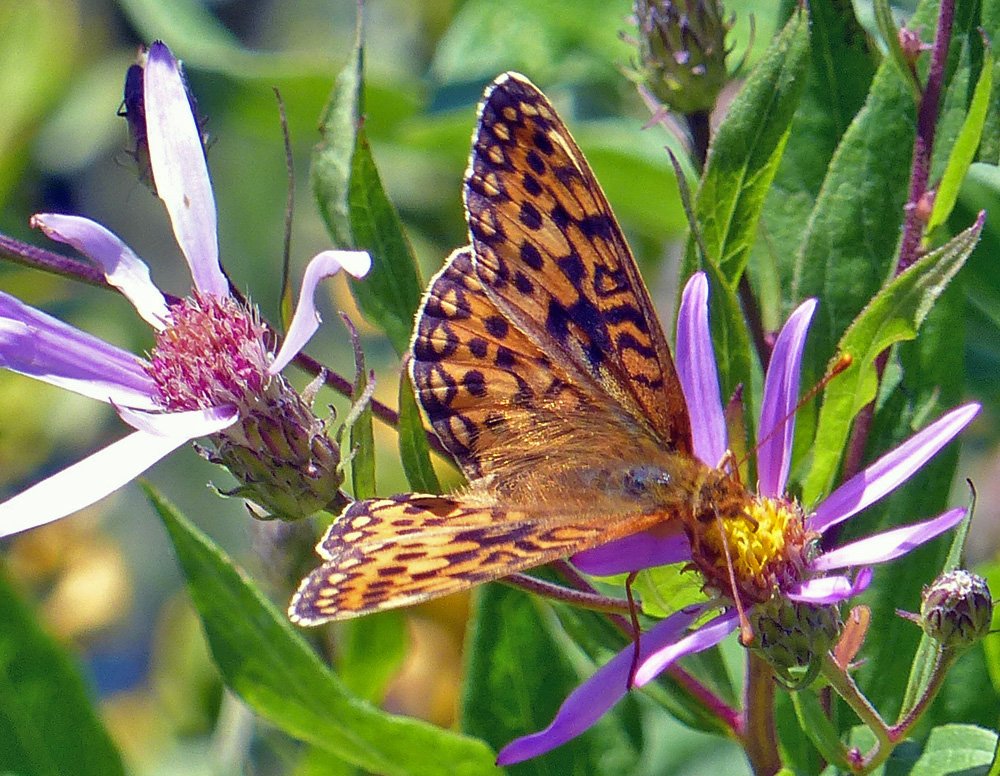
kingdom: Animalia
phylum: Arthropoda
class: Insecta
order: Lepidoptera
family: Nymphalidae
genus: Speyeria
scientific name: Speyeria zerene
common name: Zerene Fritillary
